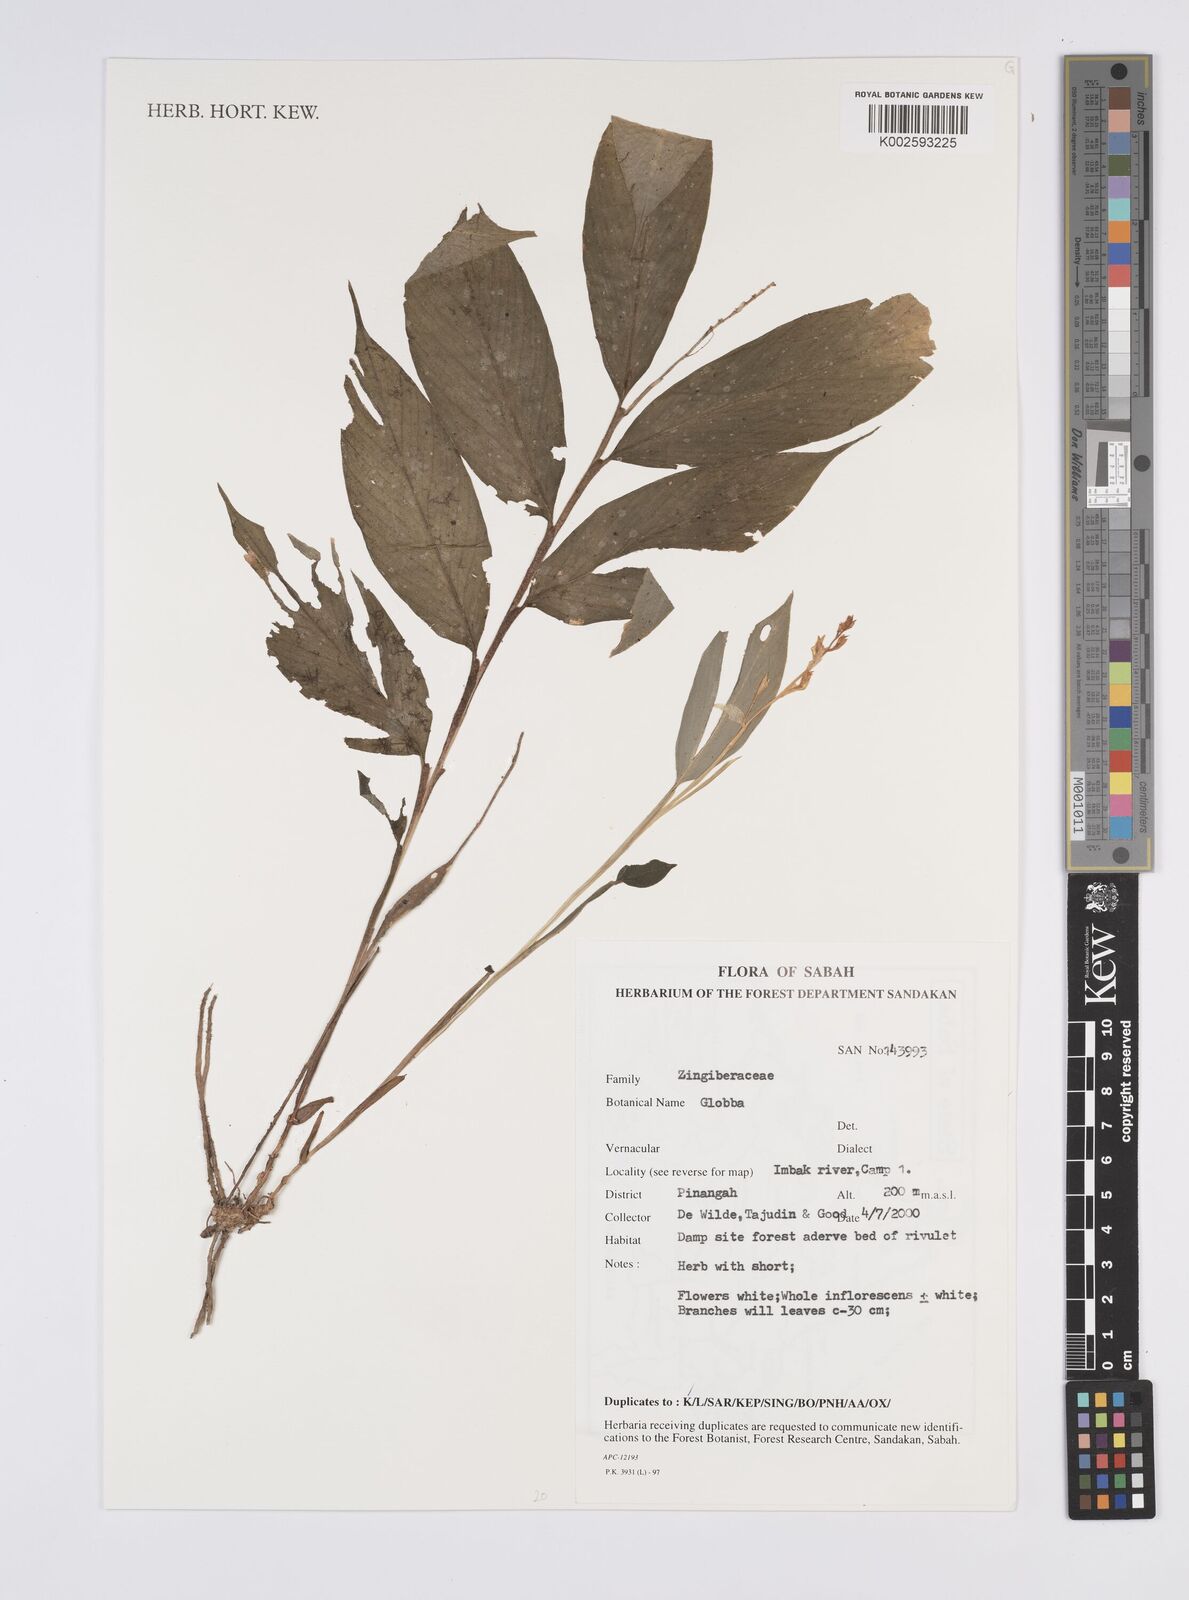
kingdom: Plantae
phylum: Tracheophyta
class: Liliopsida
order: Zingiberales
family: Zingiberaceae
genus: Globba
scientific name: Globba
